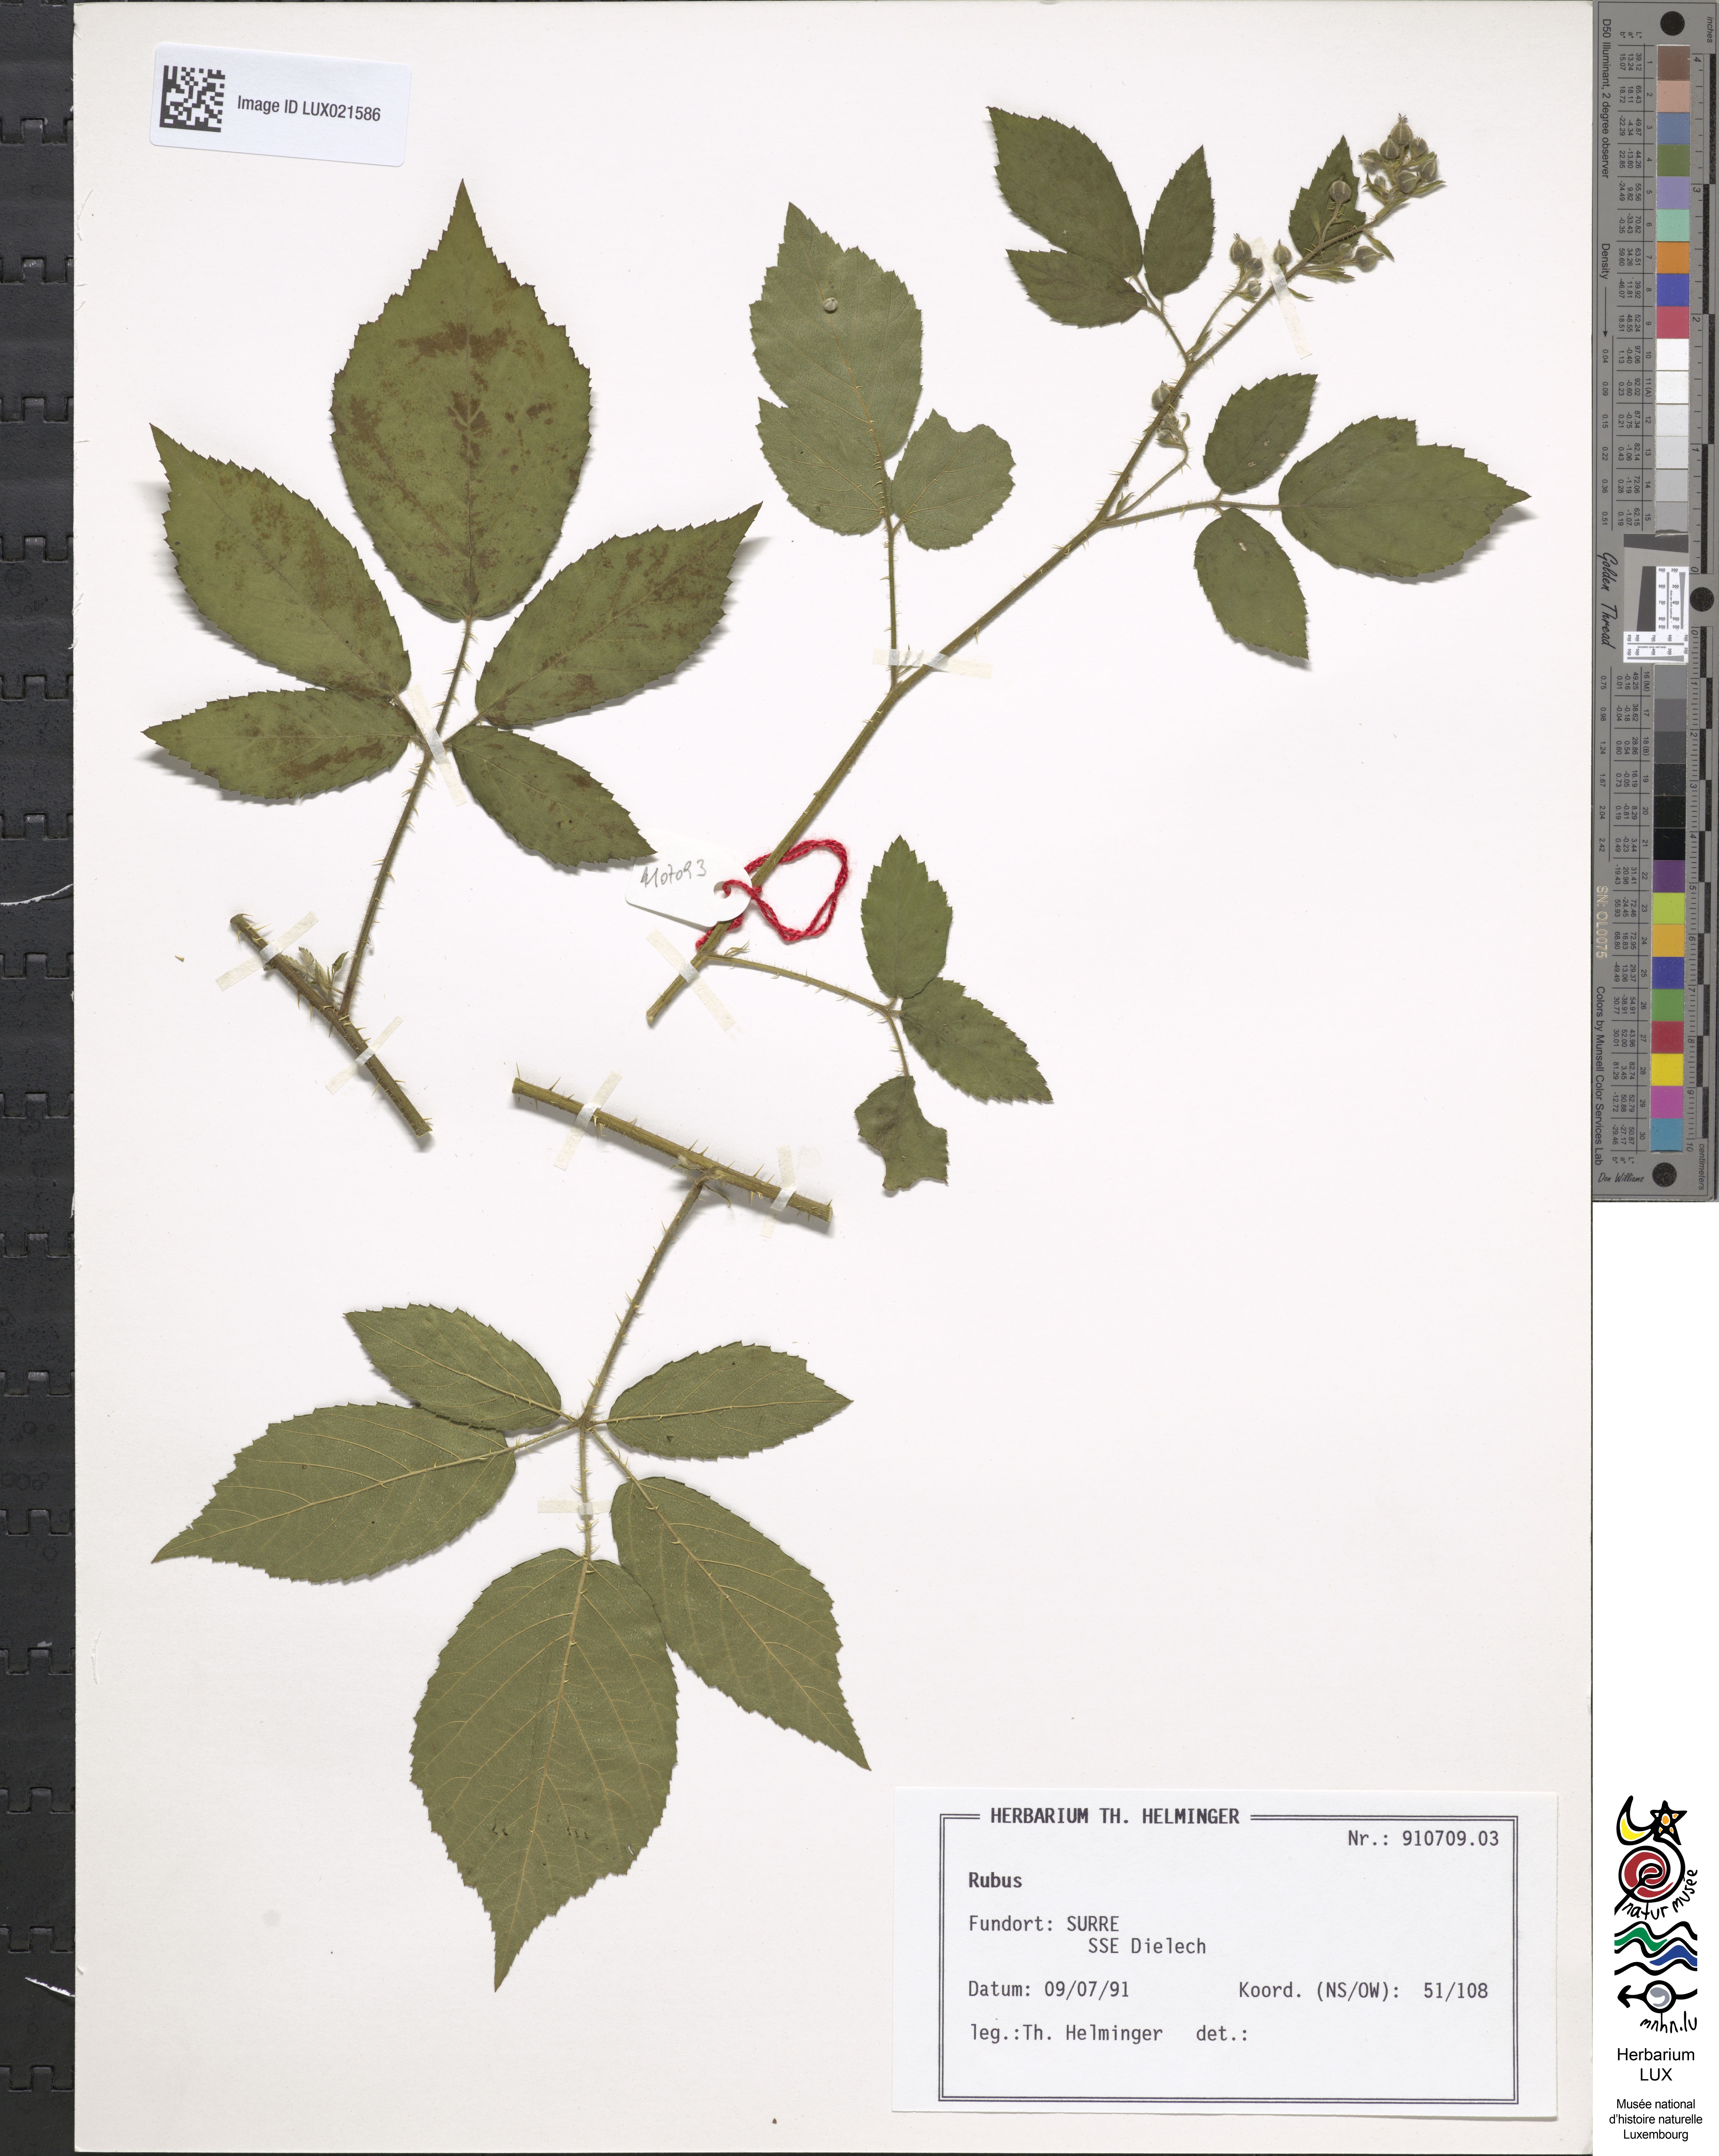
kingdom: Plantae
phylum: Tracheophyta
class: Magnoliopsida
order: Rosales
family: Rosaceae
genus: Rubus
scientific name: Rubus
